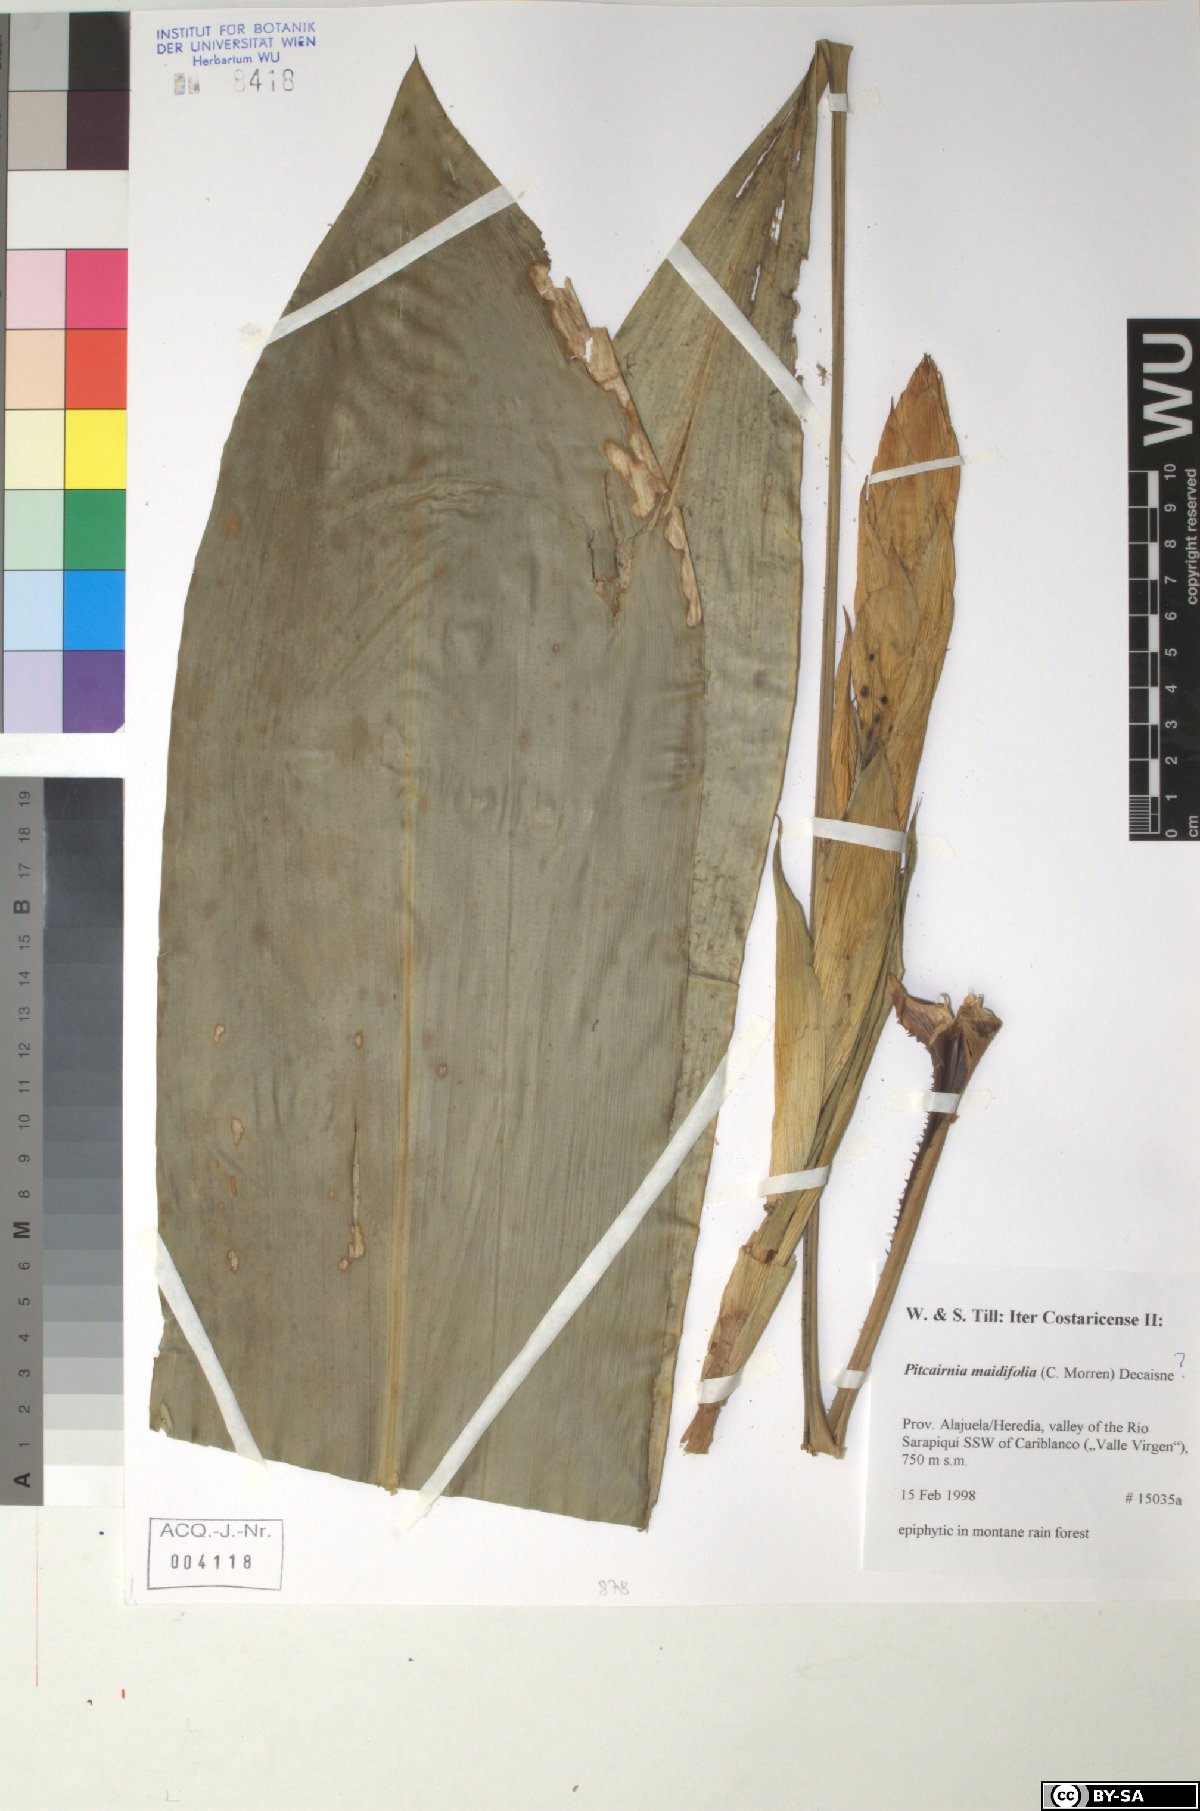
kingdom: Plantae
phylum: Tracheophyta
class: Liliopsida
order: Poales
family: Bromeliaceae
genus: Pitcairnia
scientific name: Pitcairnia maidifolia
